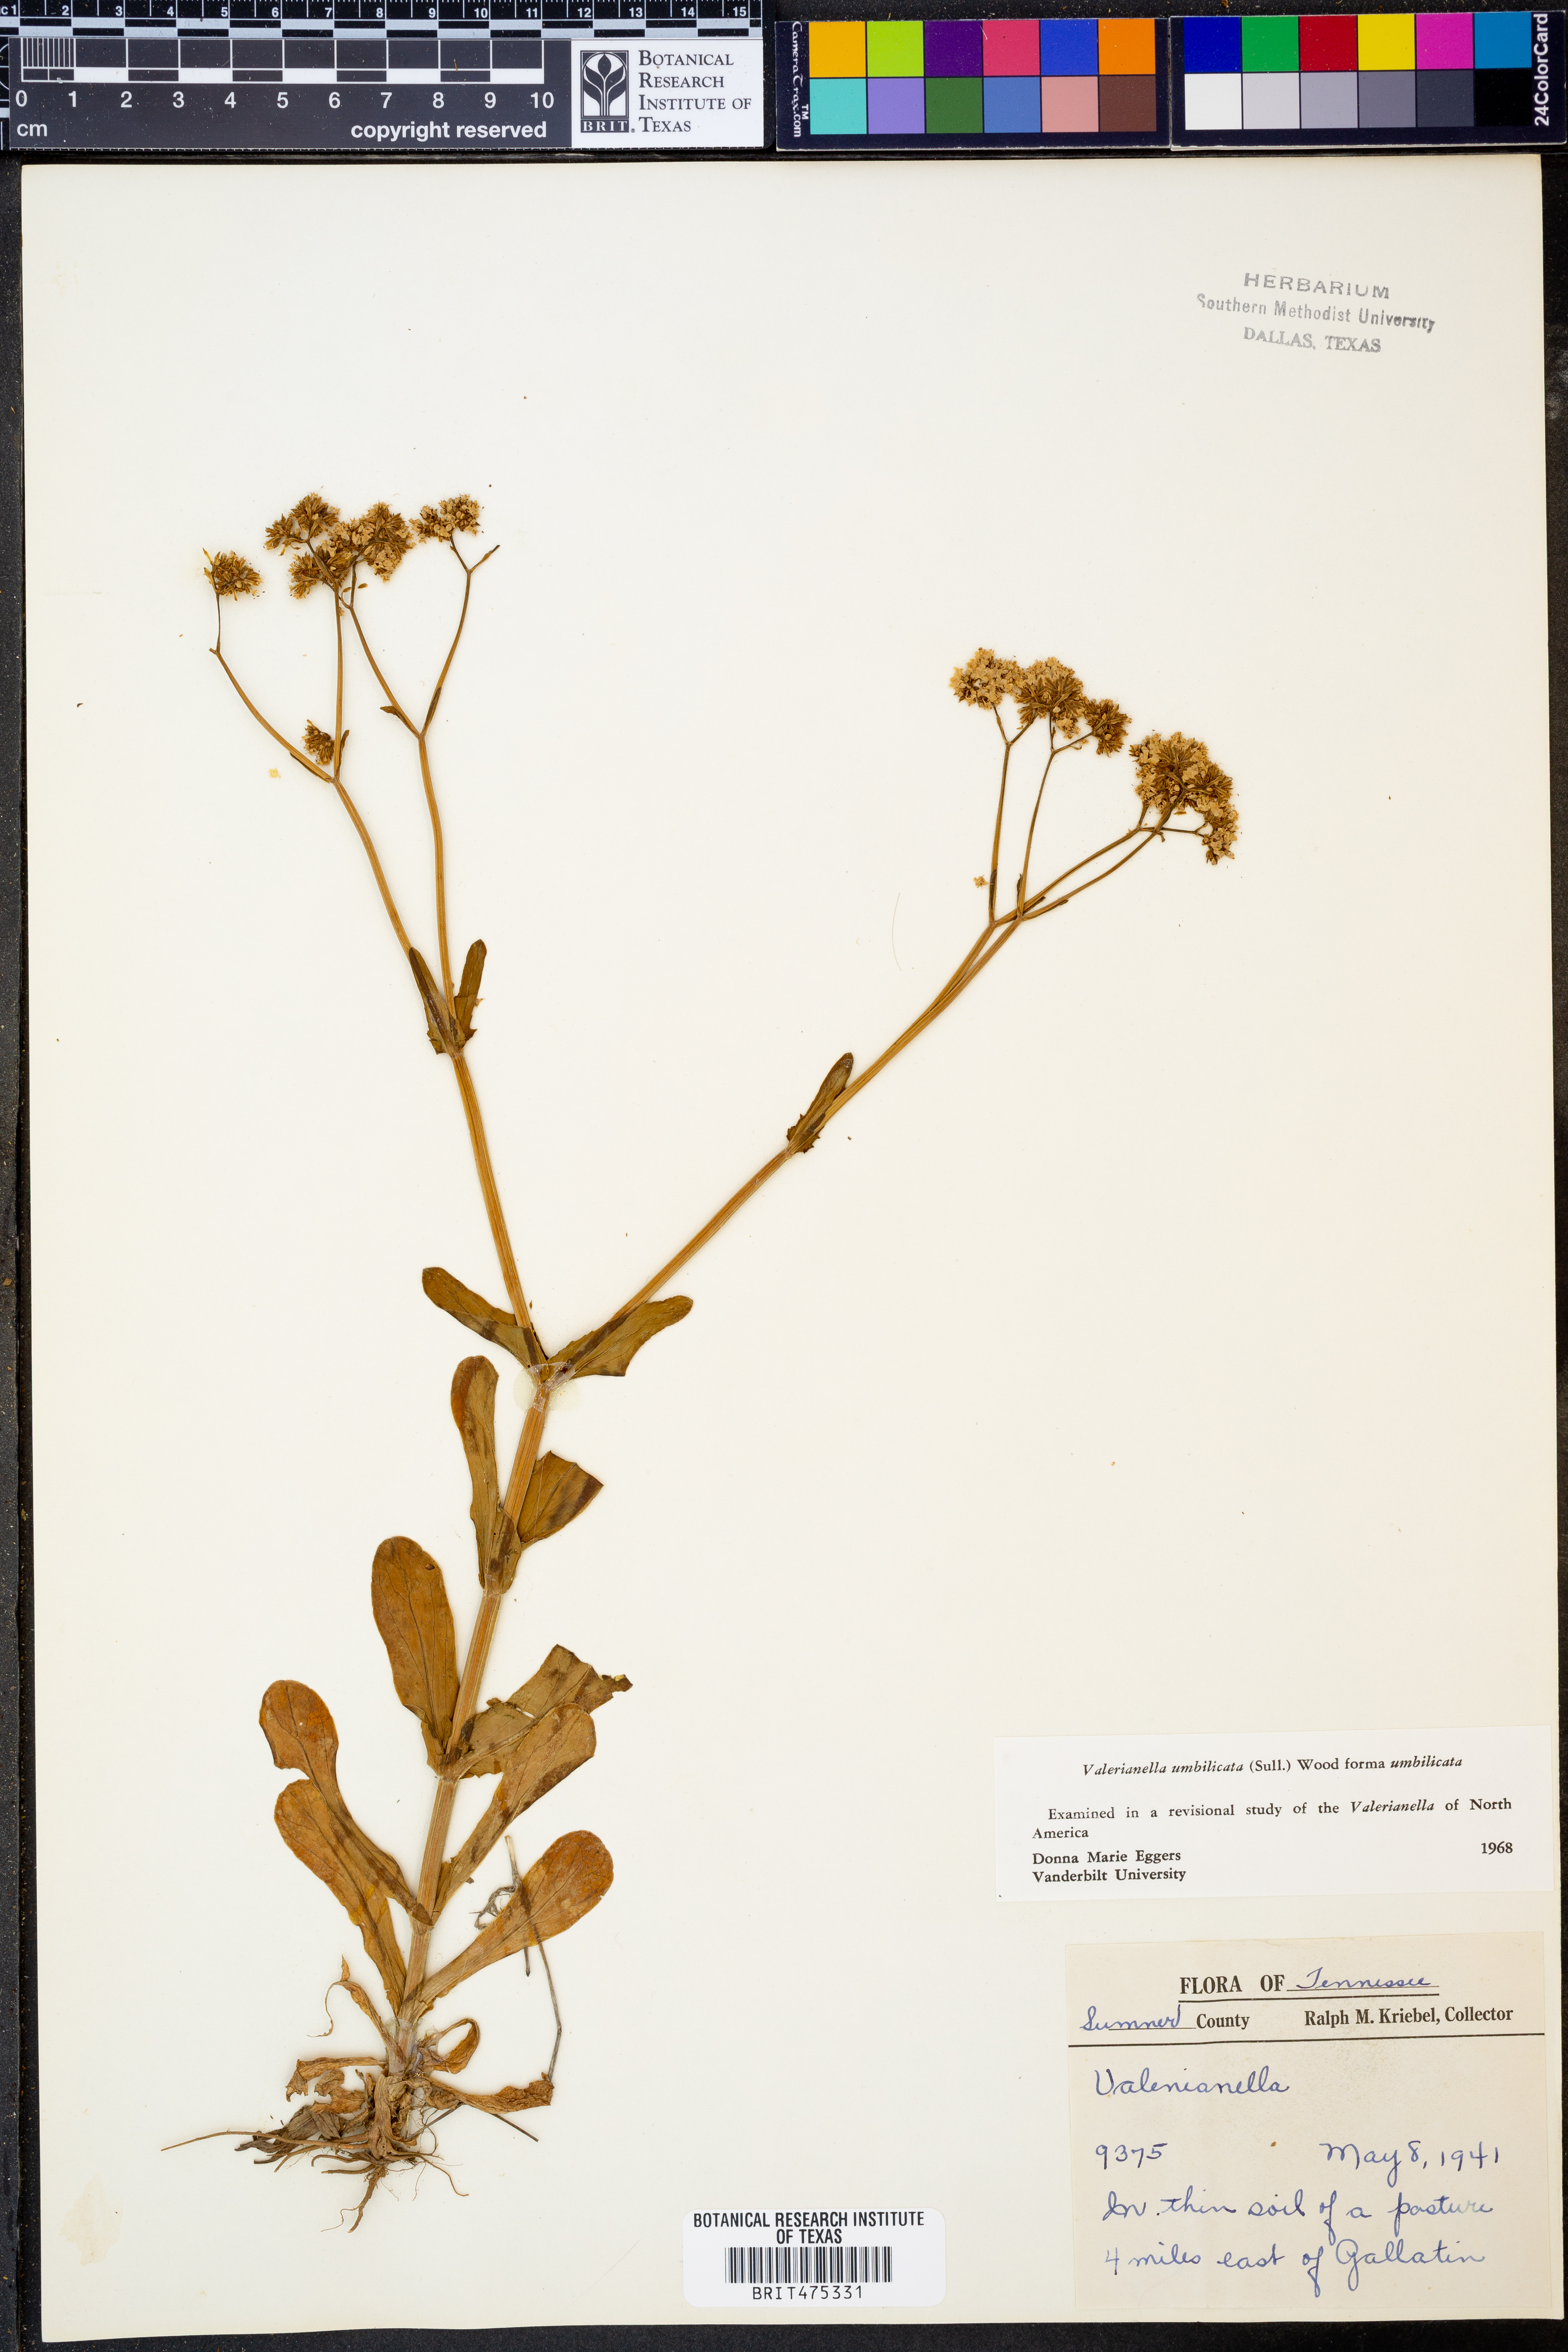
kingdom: Plantae
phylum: Tracheophyta
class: Magnoliopsida
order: Dipsacales
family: Caprifoliaceae
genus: Valerianella
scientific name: Valerianella umbilicata
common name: Wood's cornsalad
